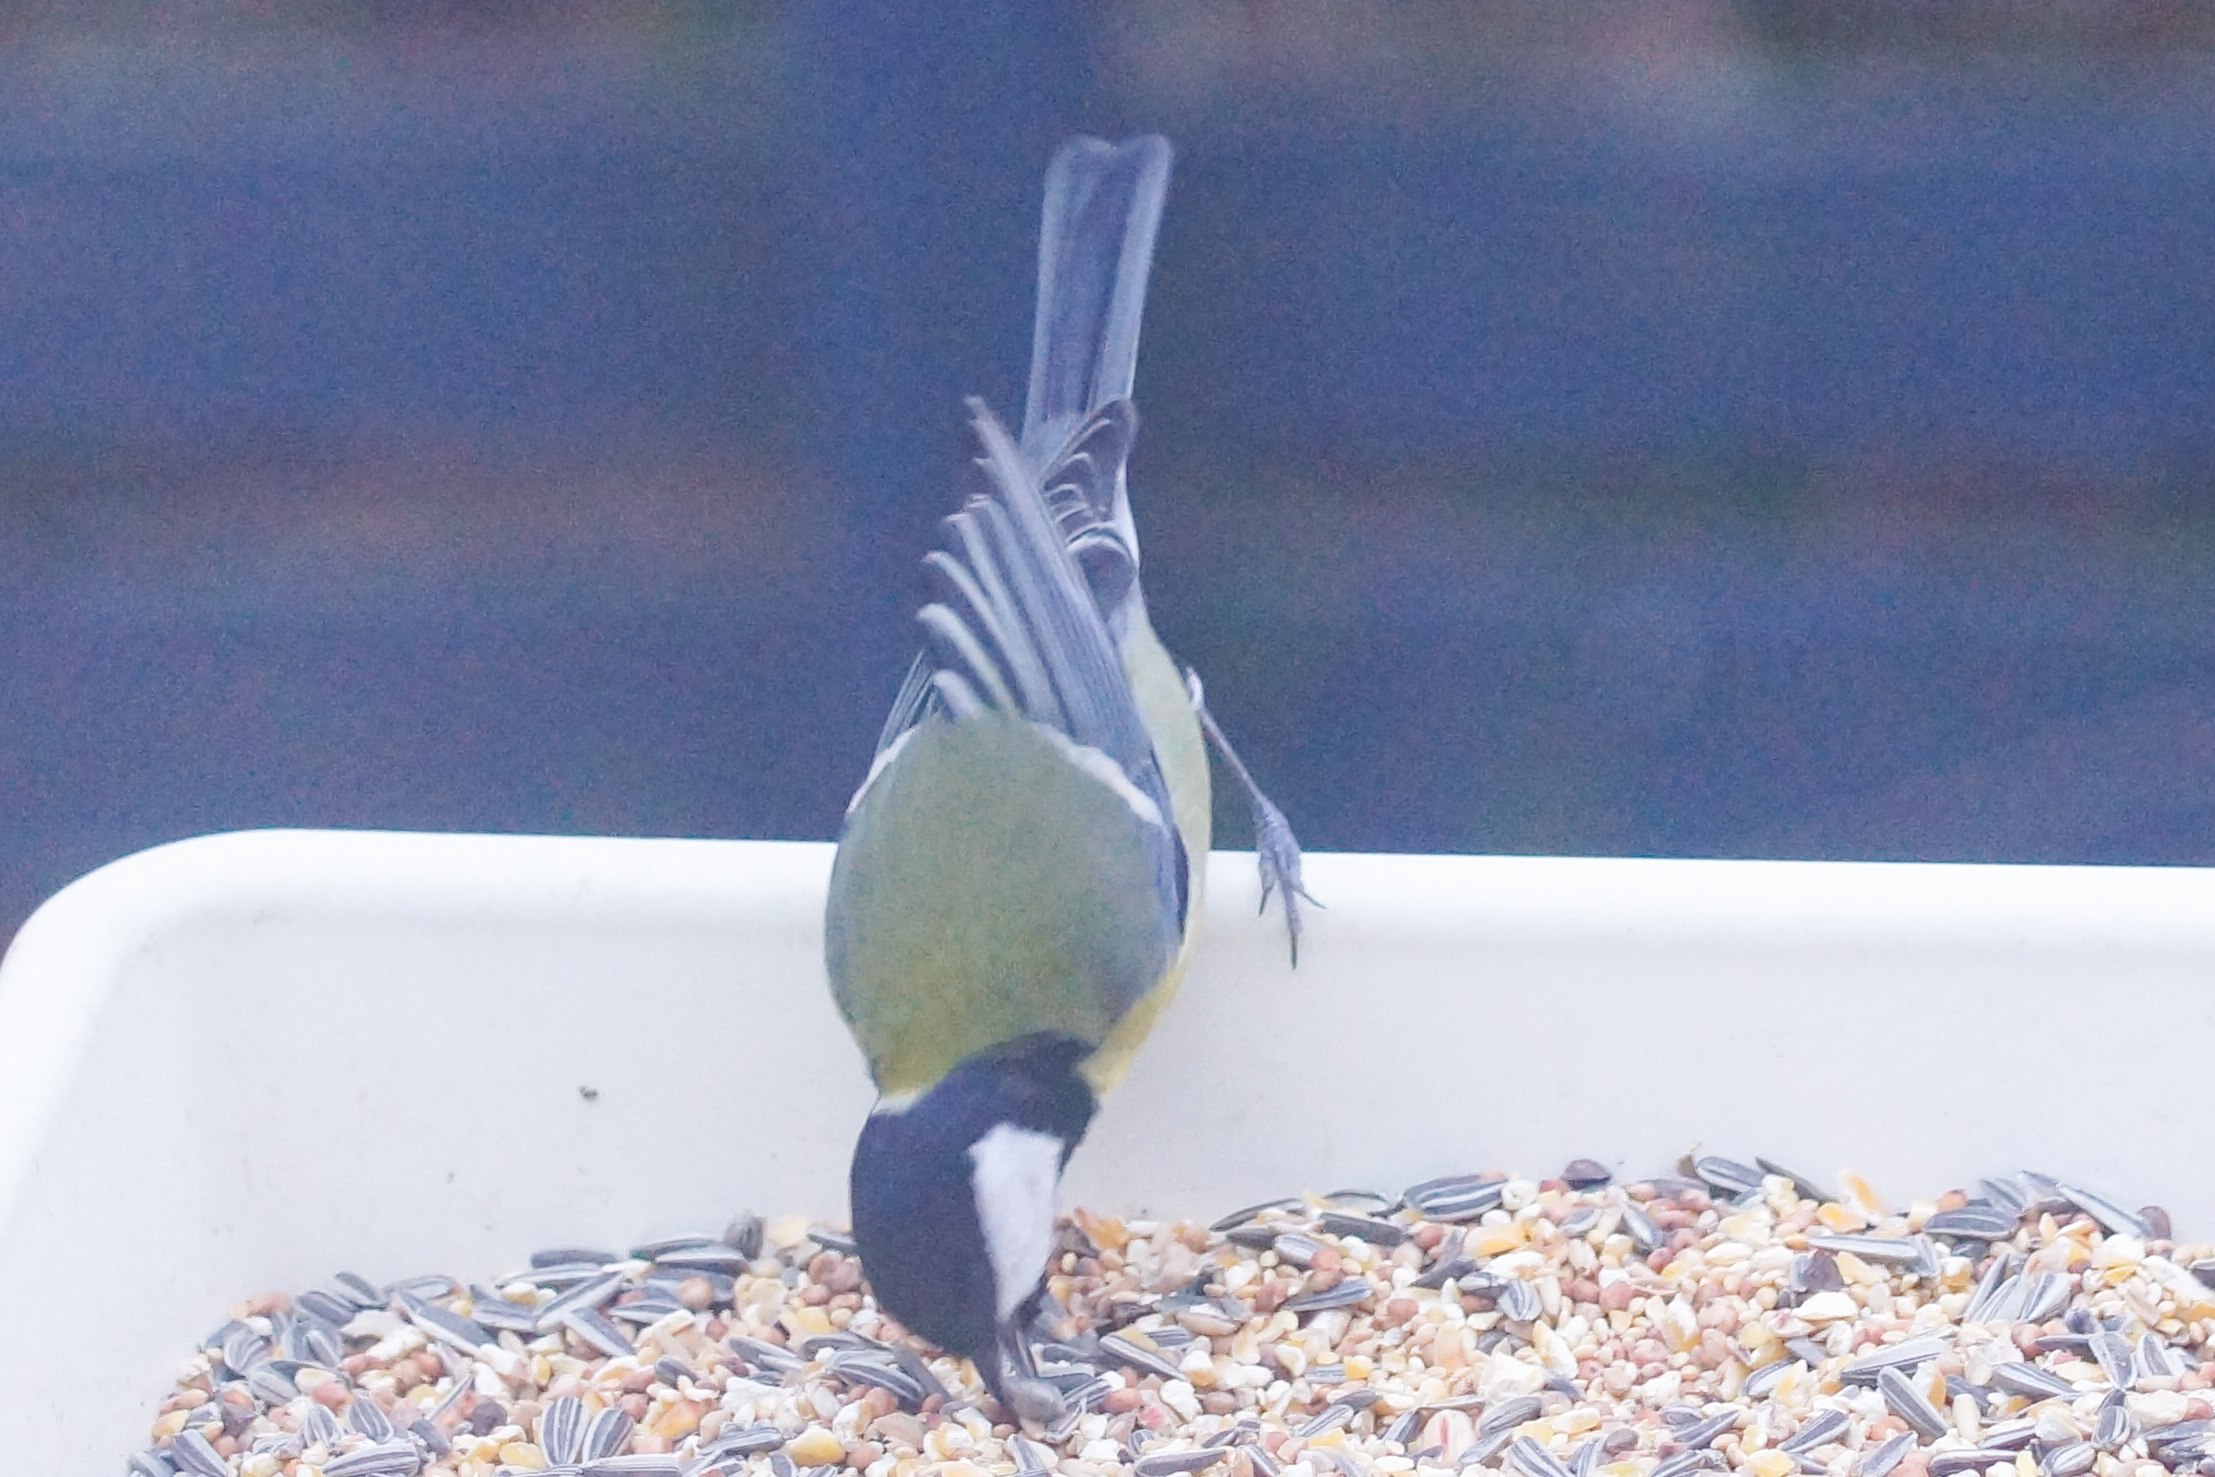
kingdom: Animalia
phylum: Chordata
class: Aves
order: Passeriformes
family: Paridae
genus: Parus
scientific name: Parus major
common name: Musvit
